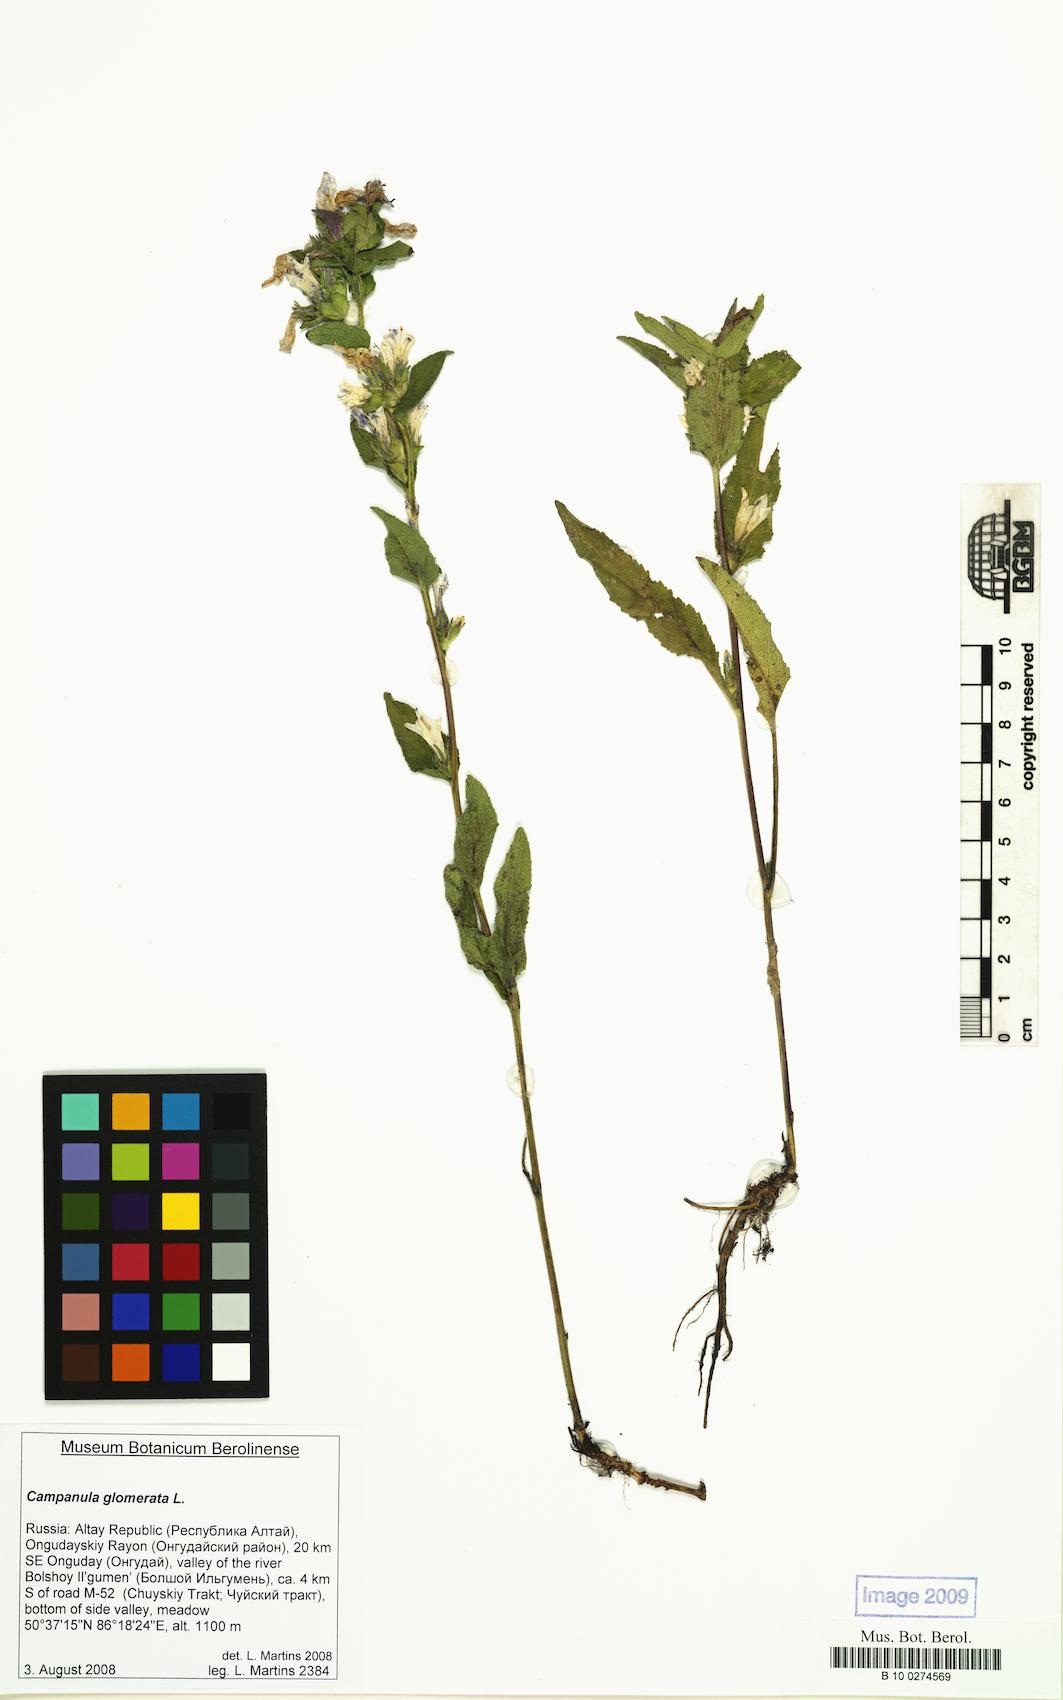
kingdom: Plantae
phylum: Tracheophyta
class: Magnoliopsida
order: Asterales
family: Campanulaceae
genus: Campanula
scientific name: Campanula glomerata
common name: Clustered bellflower
